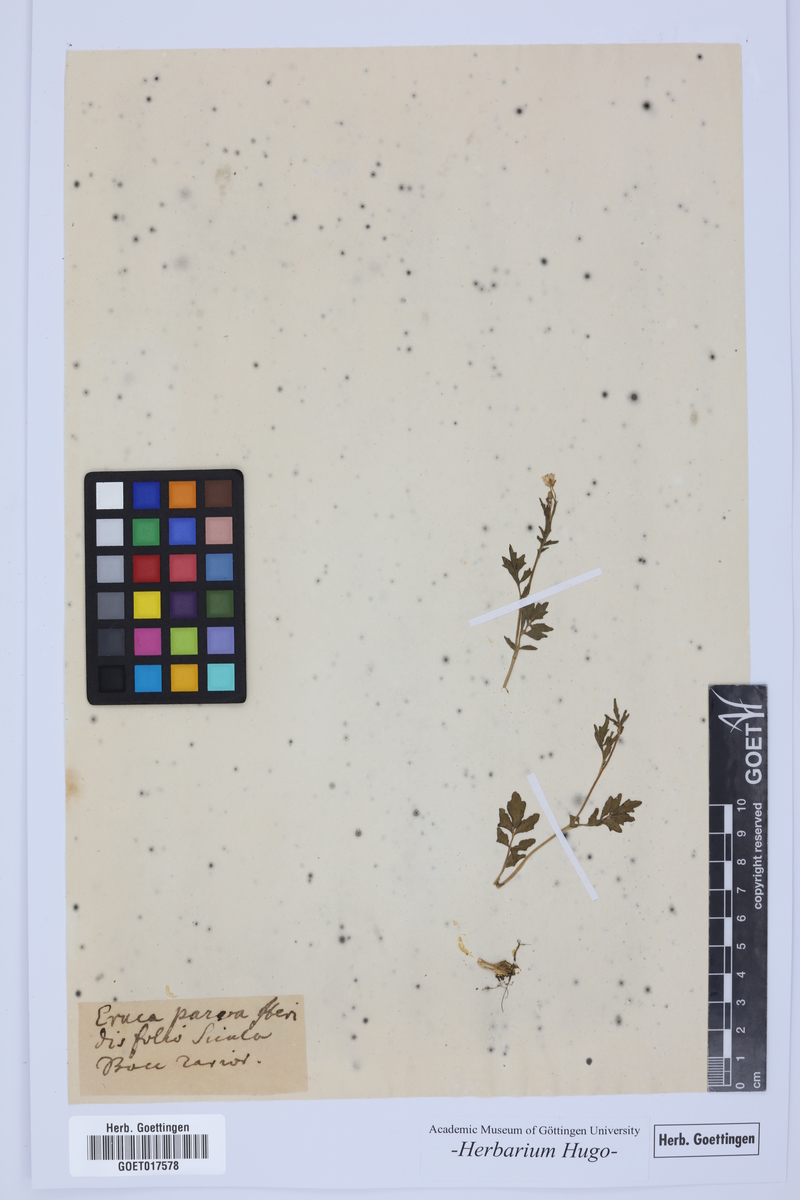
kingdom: Plantae
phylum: Tracheophyta
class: Magnoliopsida
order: Brassicales
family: Brassicaceae
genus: Eruca
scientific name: Eruca
